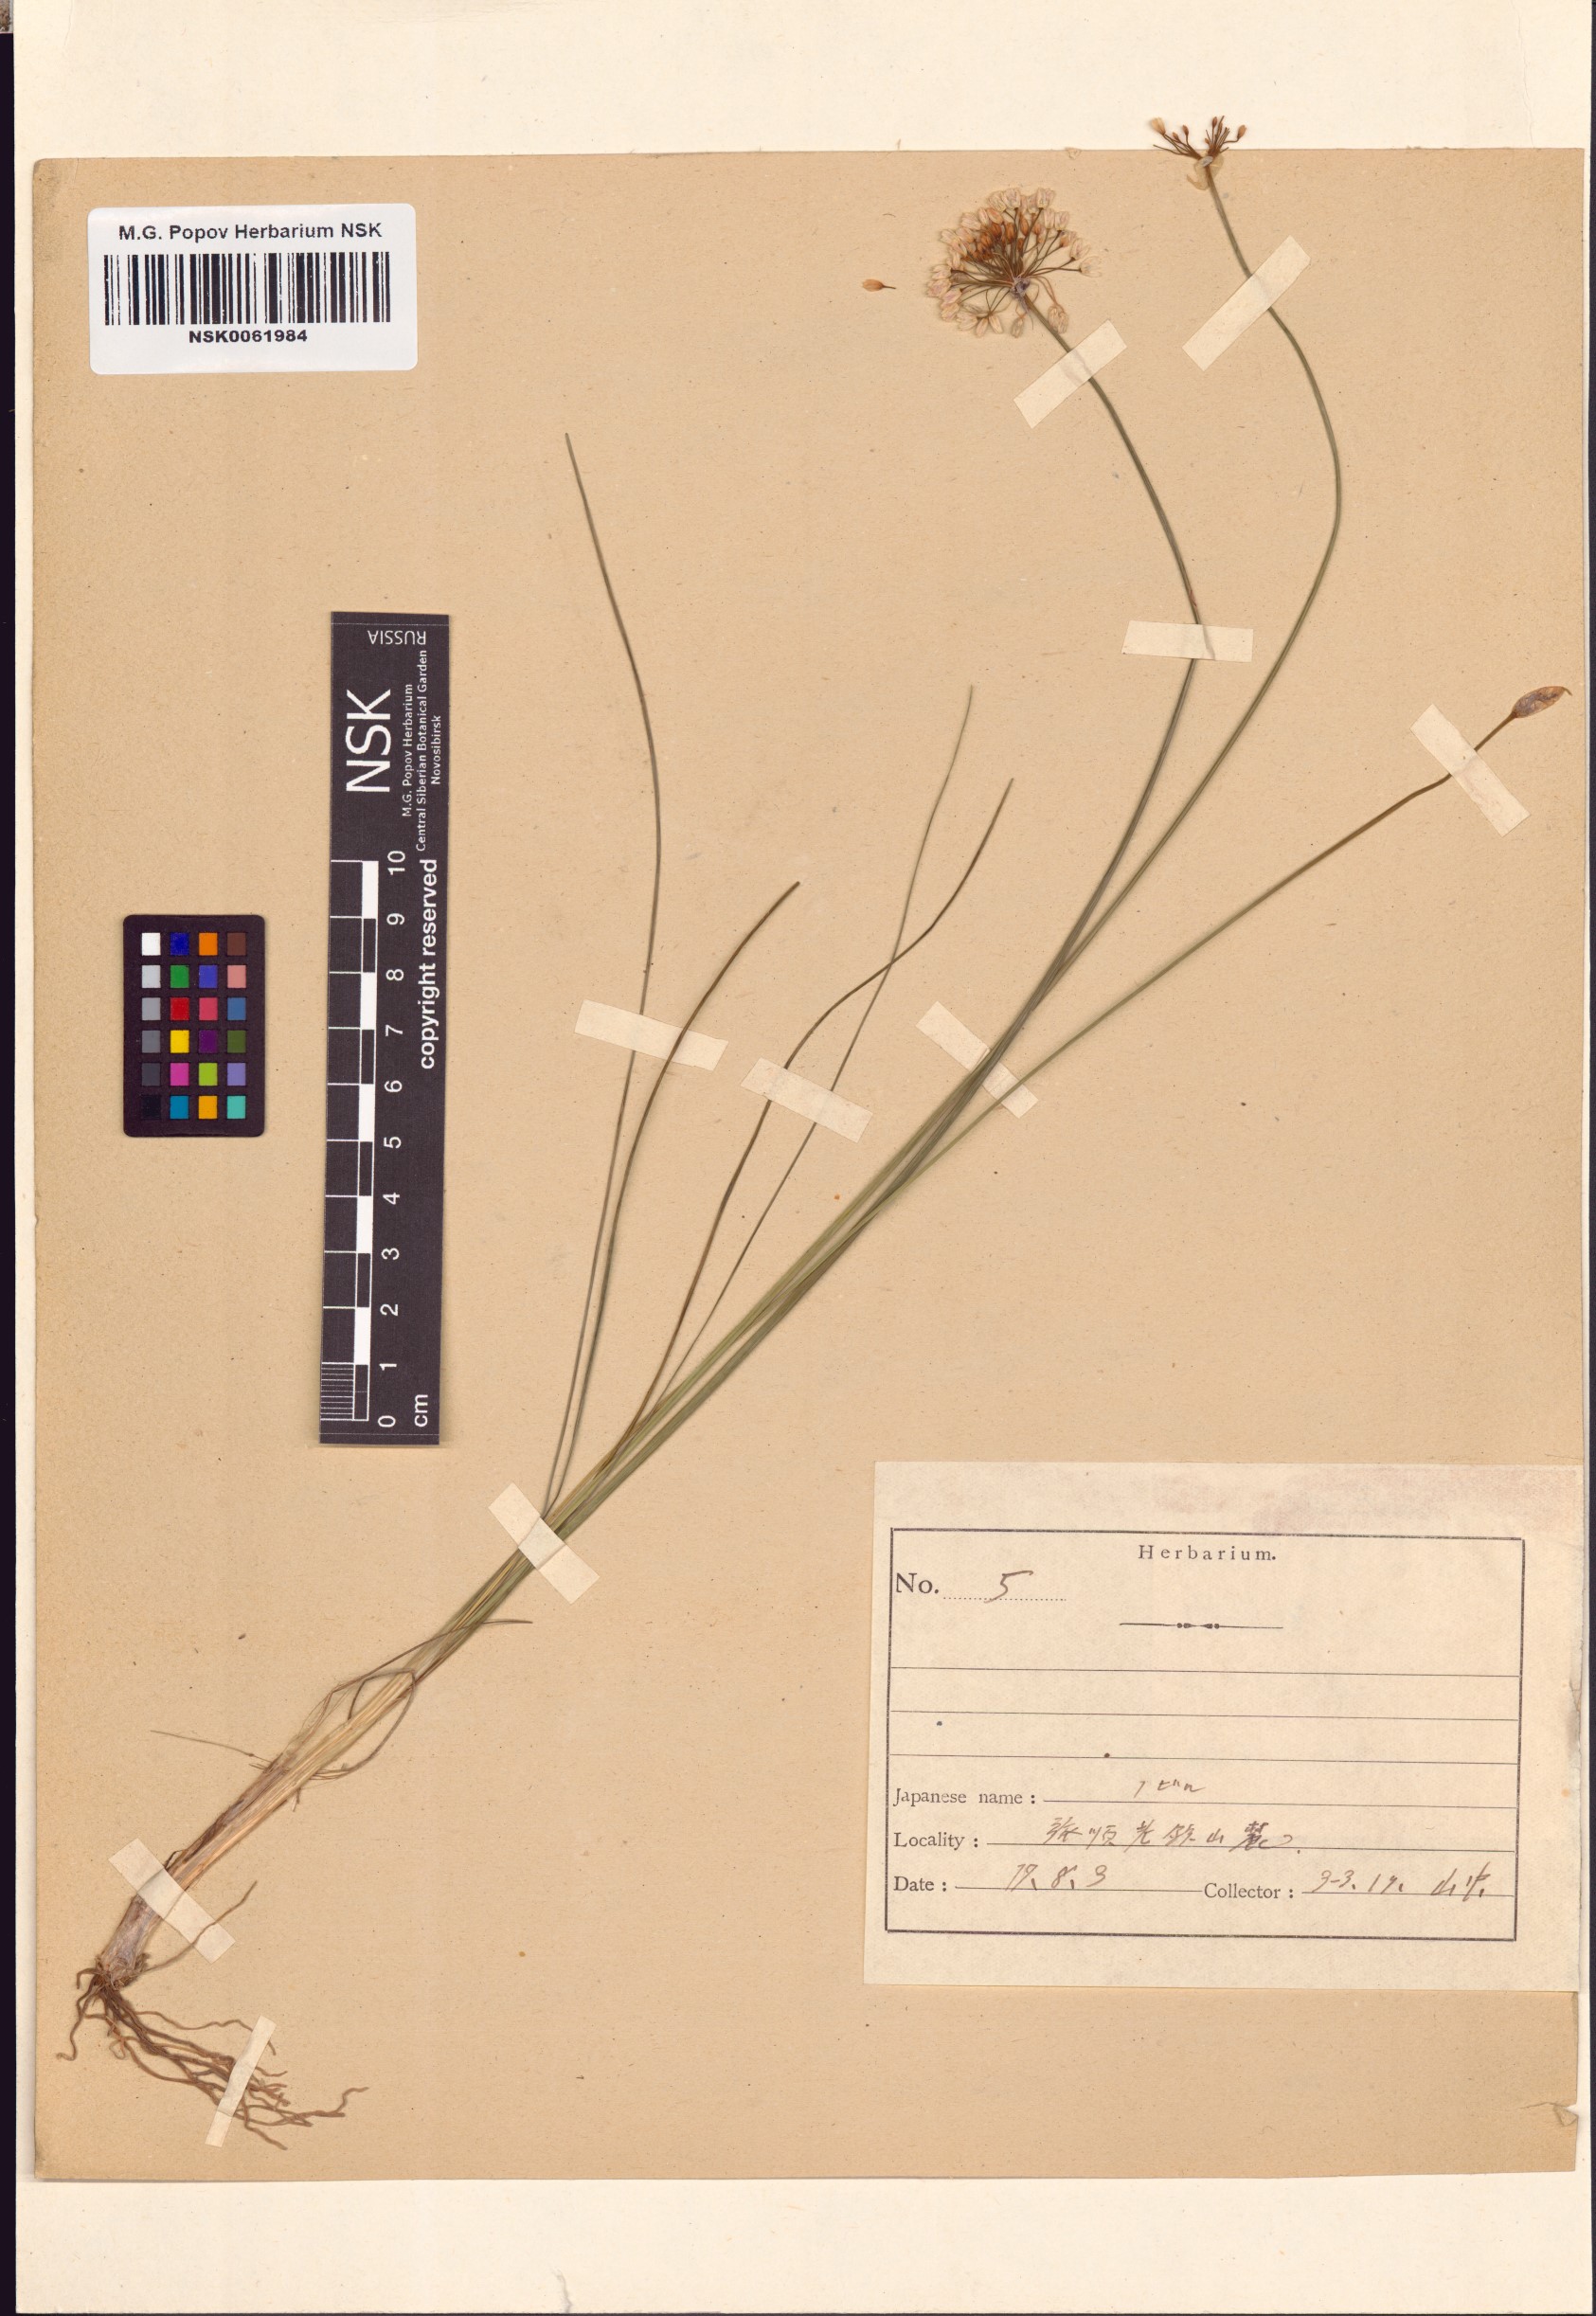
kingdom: Plantae
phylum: Tracheophyta
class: Liliopsida
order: Asparagales
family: Amaryllidaceae
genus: Allium
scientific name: Allium macrostemon
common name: Chinese garlic
